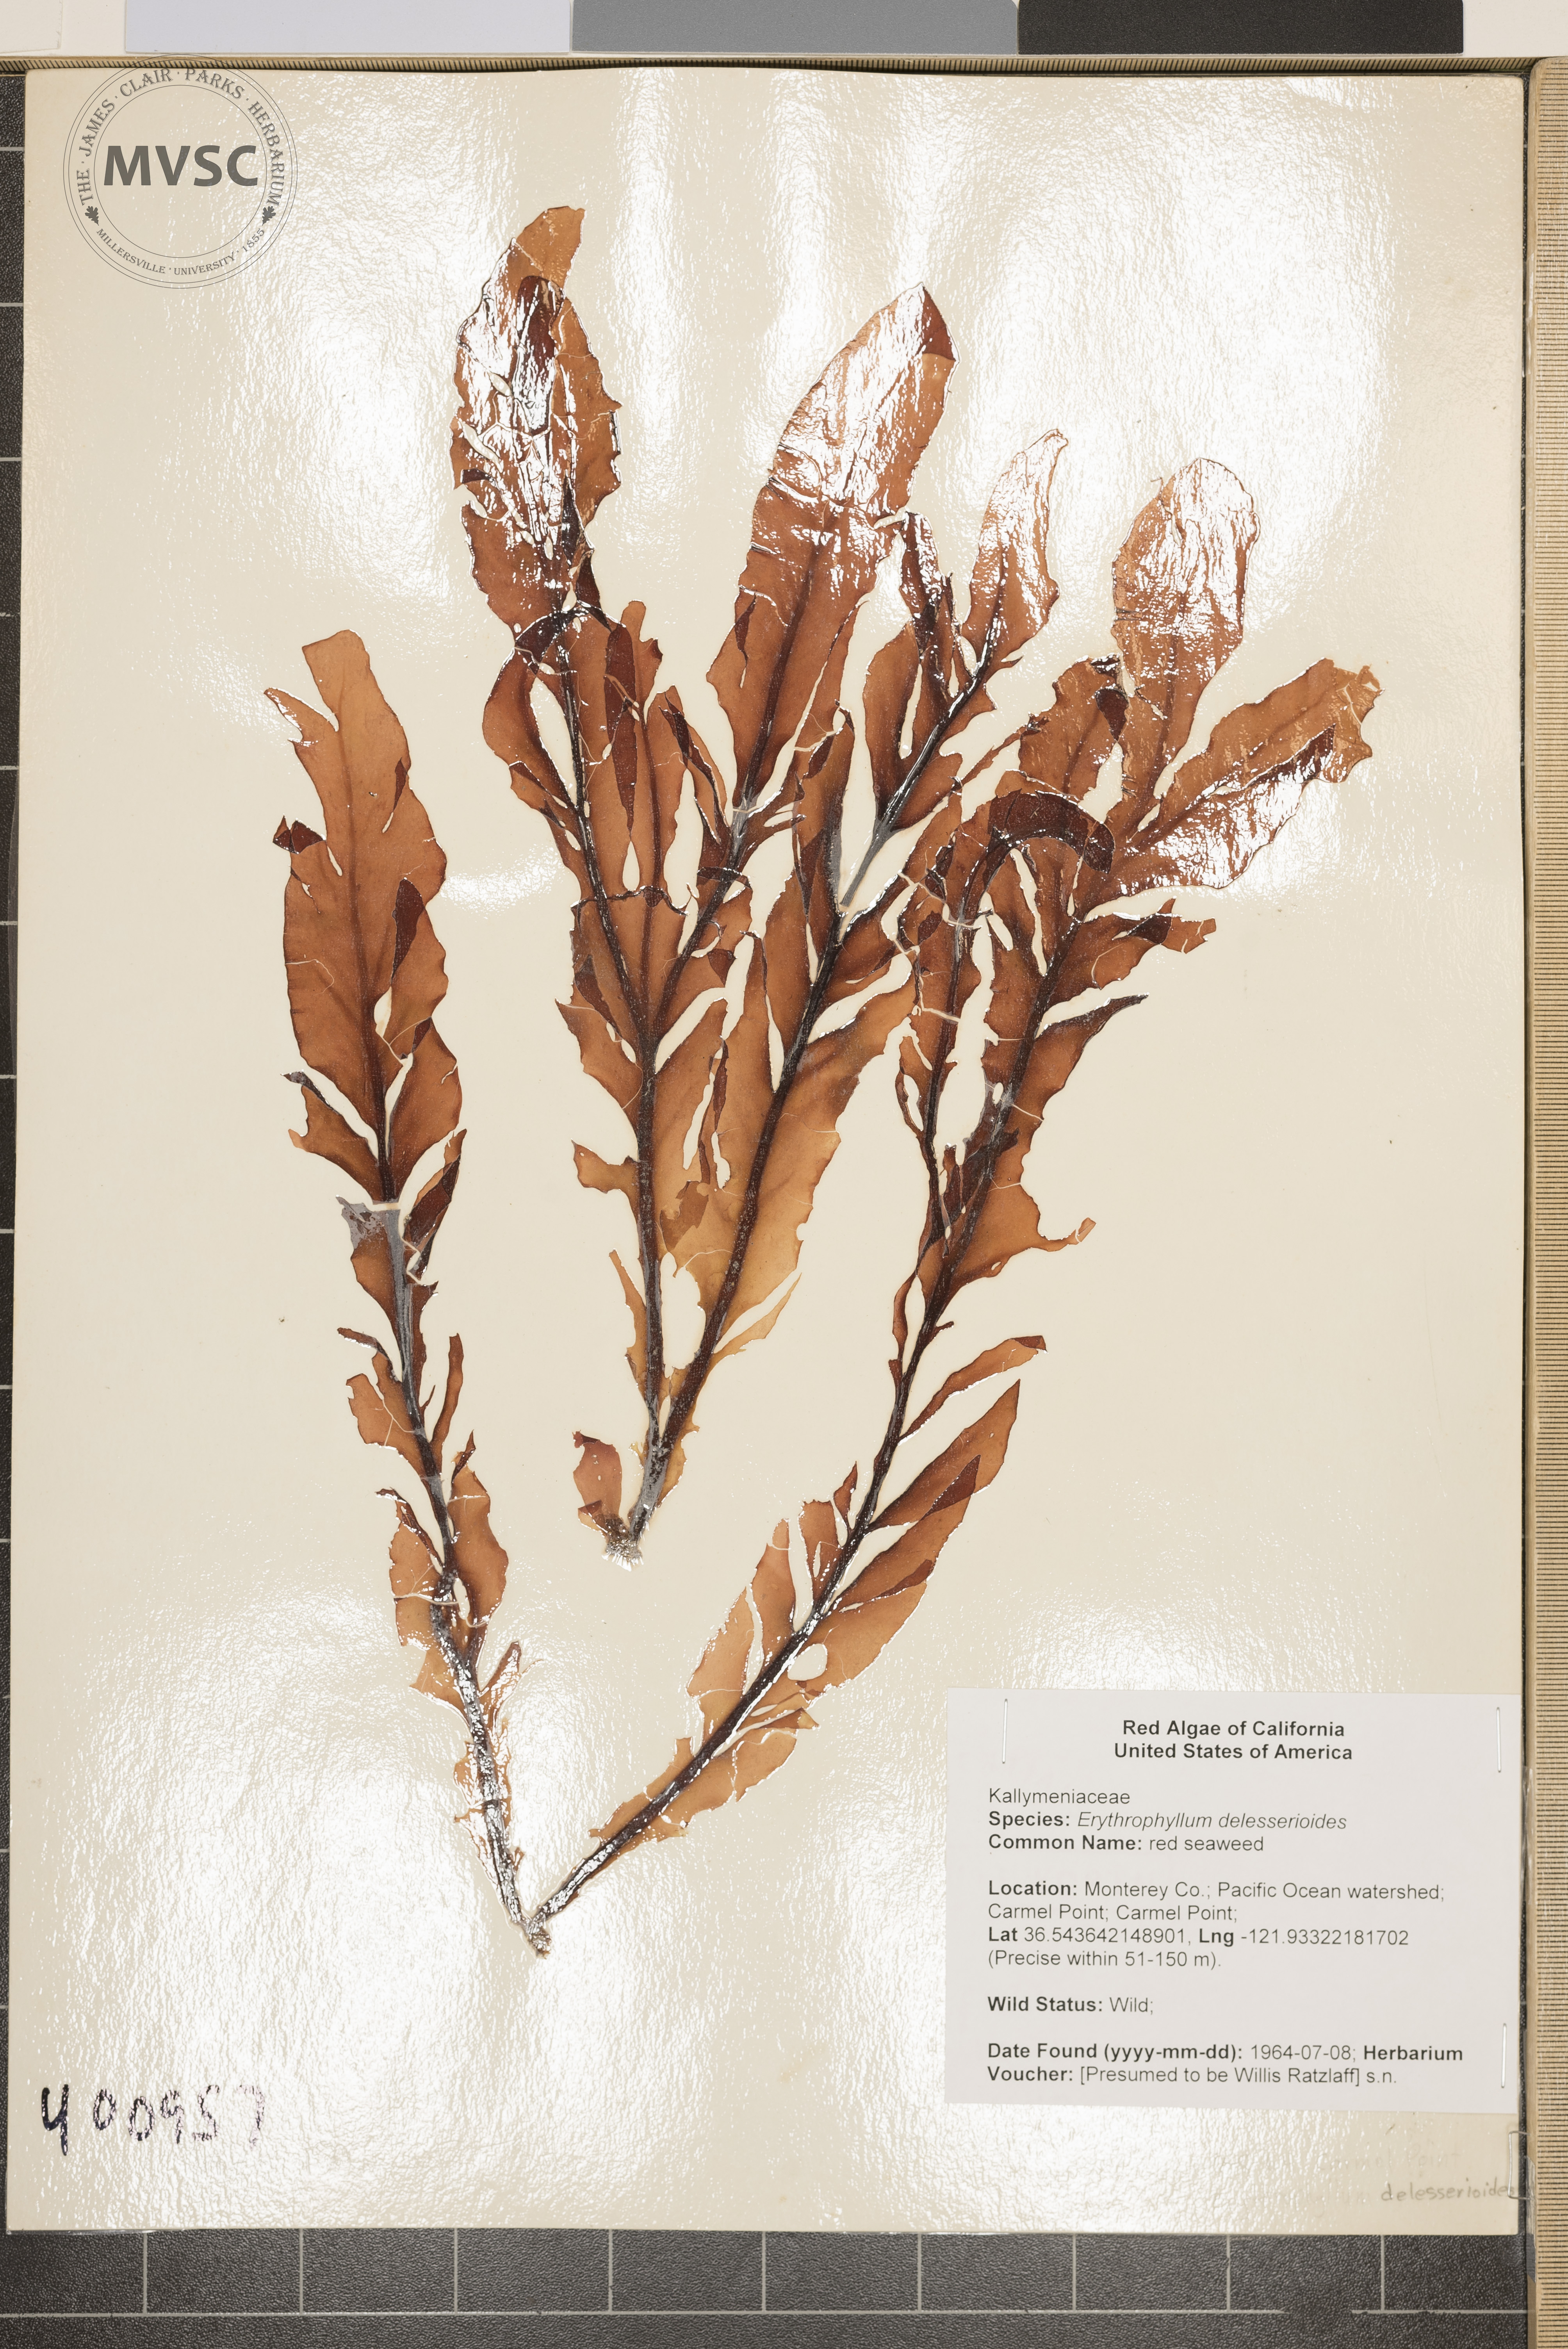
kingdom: Plantae
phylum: Rhodophyta
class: Florideophyceae
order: Gigartinales
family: Kallymeniaceae
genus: Erythrophyllum
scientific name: Erythrophyllum
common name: red seaweed
